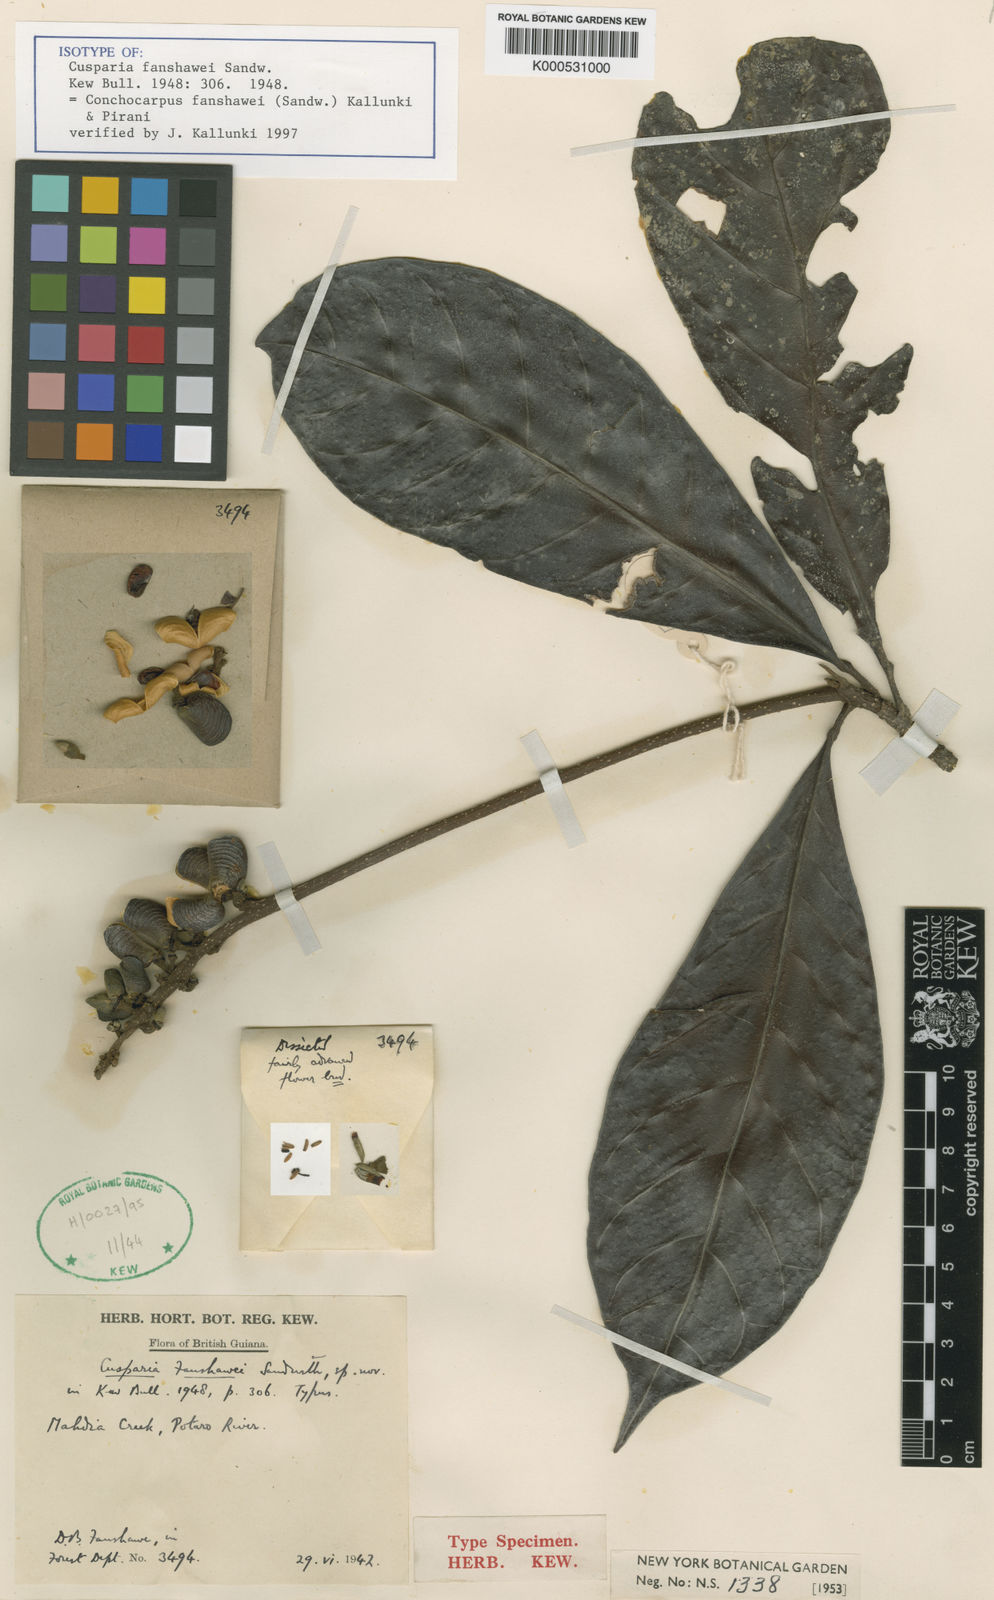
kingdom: Plantae
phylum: Tracheophyta
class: Magnoliopsida
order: Sapindales
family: Rutaceae
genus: Conchocarpus
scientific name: Conchocarpus fanshawei
